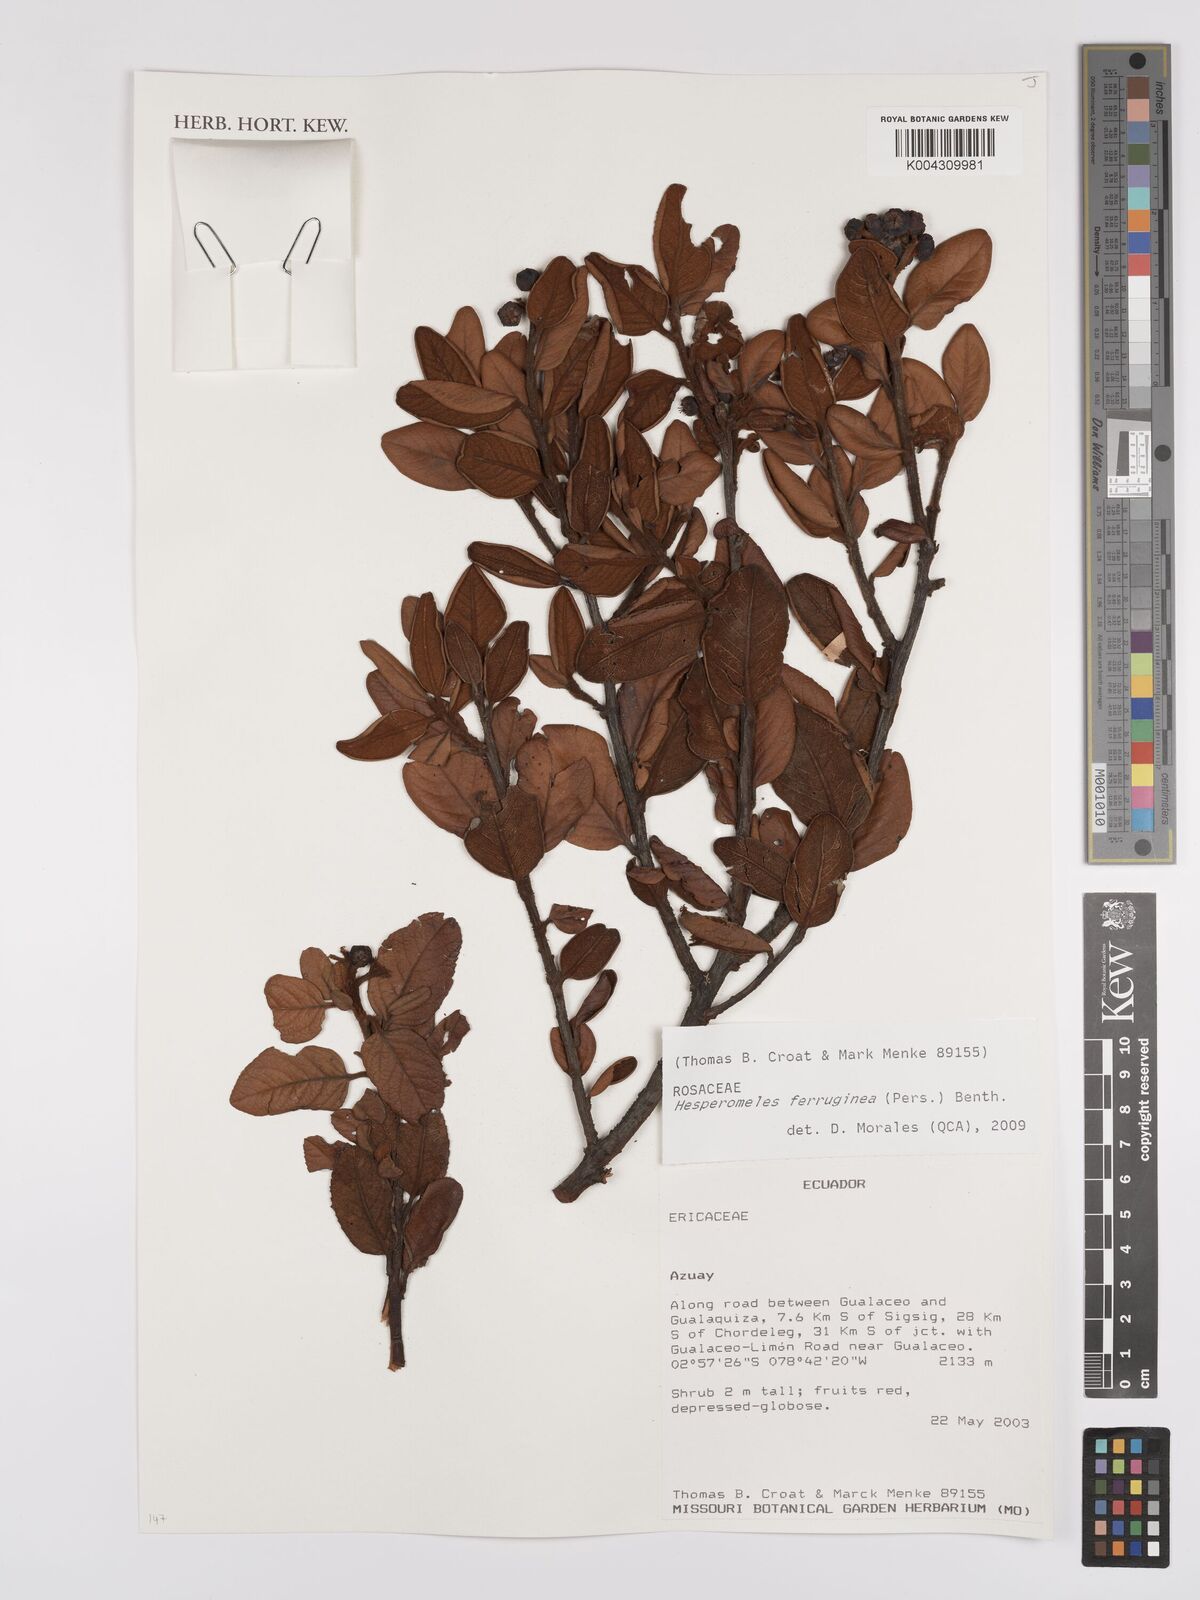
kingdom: Plantae
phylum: Tracheophyta
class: Magnoliopsida
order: Rosales
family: Rosaceae
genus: Hesperomeles
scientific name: Hesperomeles ferruginea
